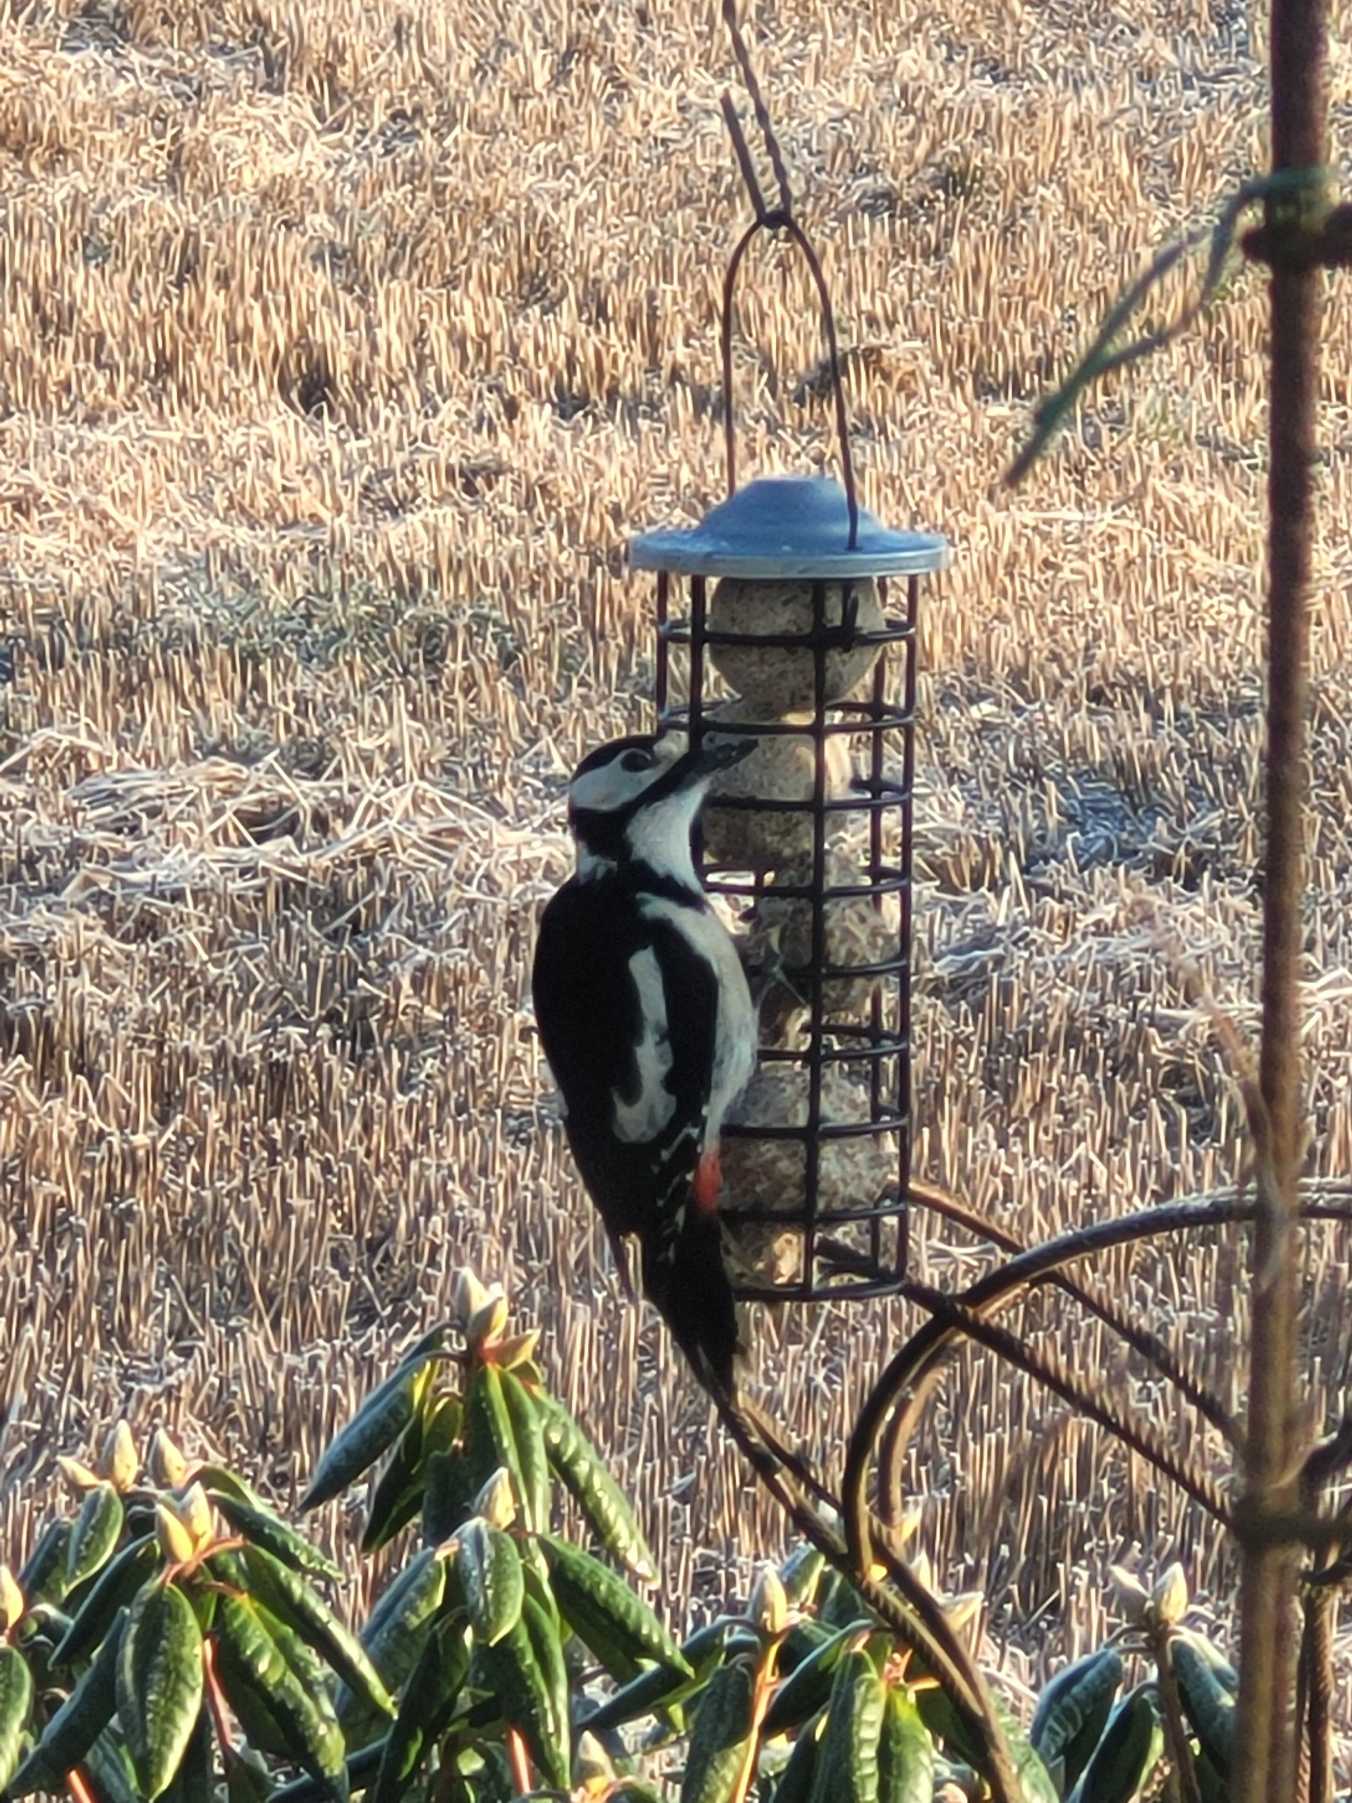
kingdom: Animalia
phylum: Chordata
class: Aves
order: Piciformes
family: Picidae
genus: Dendrocopos
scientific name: Dendrocopos major
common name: Stor flagspætte
